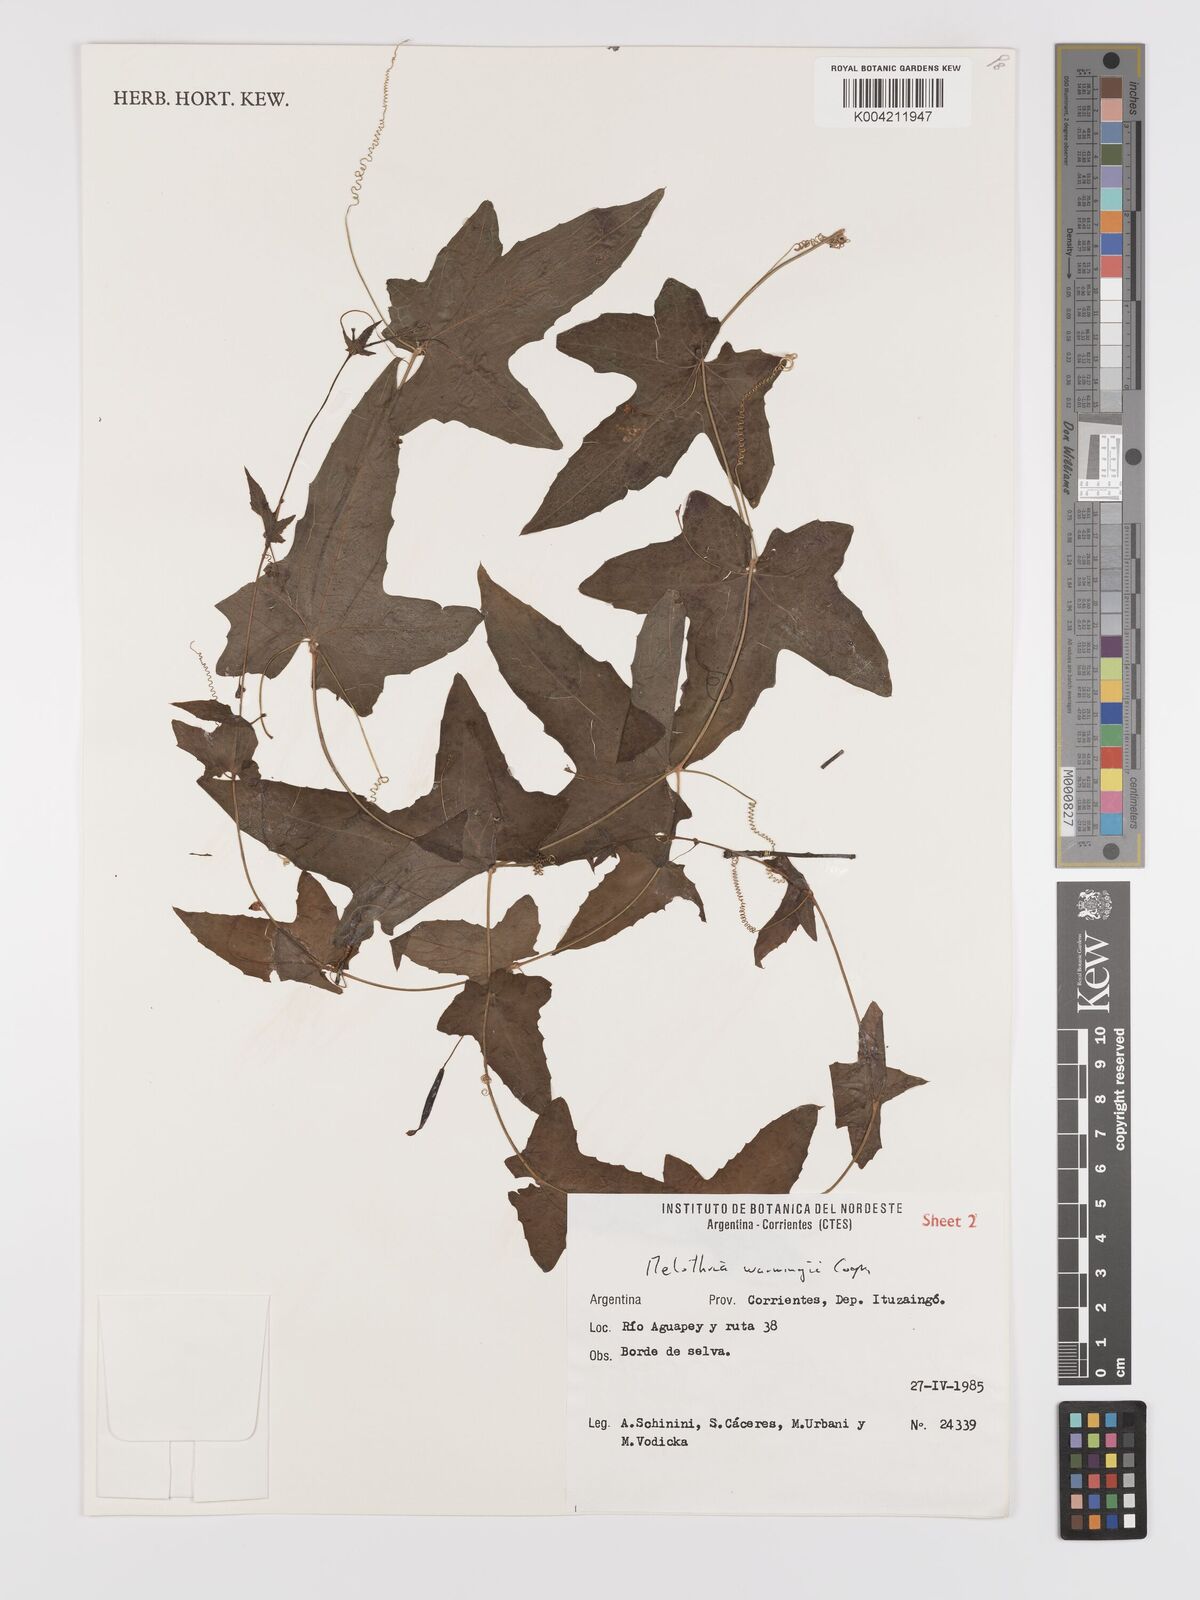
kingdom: Plantae
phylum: Tracheophyta
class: Magnoliopsida
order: Cucurbitales
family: Cucurbitaceae
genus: Melothria
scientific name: Melothria warmingii
